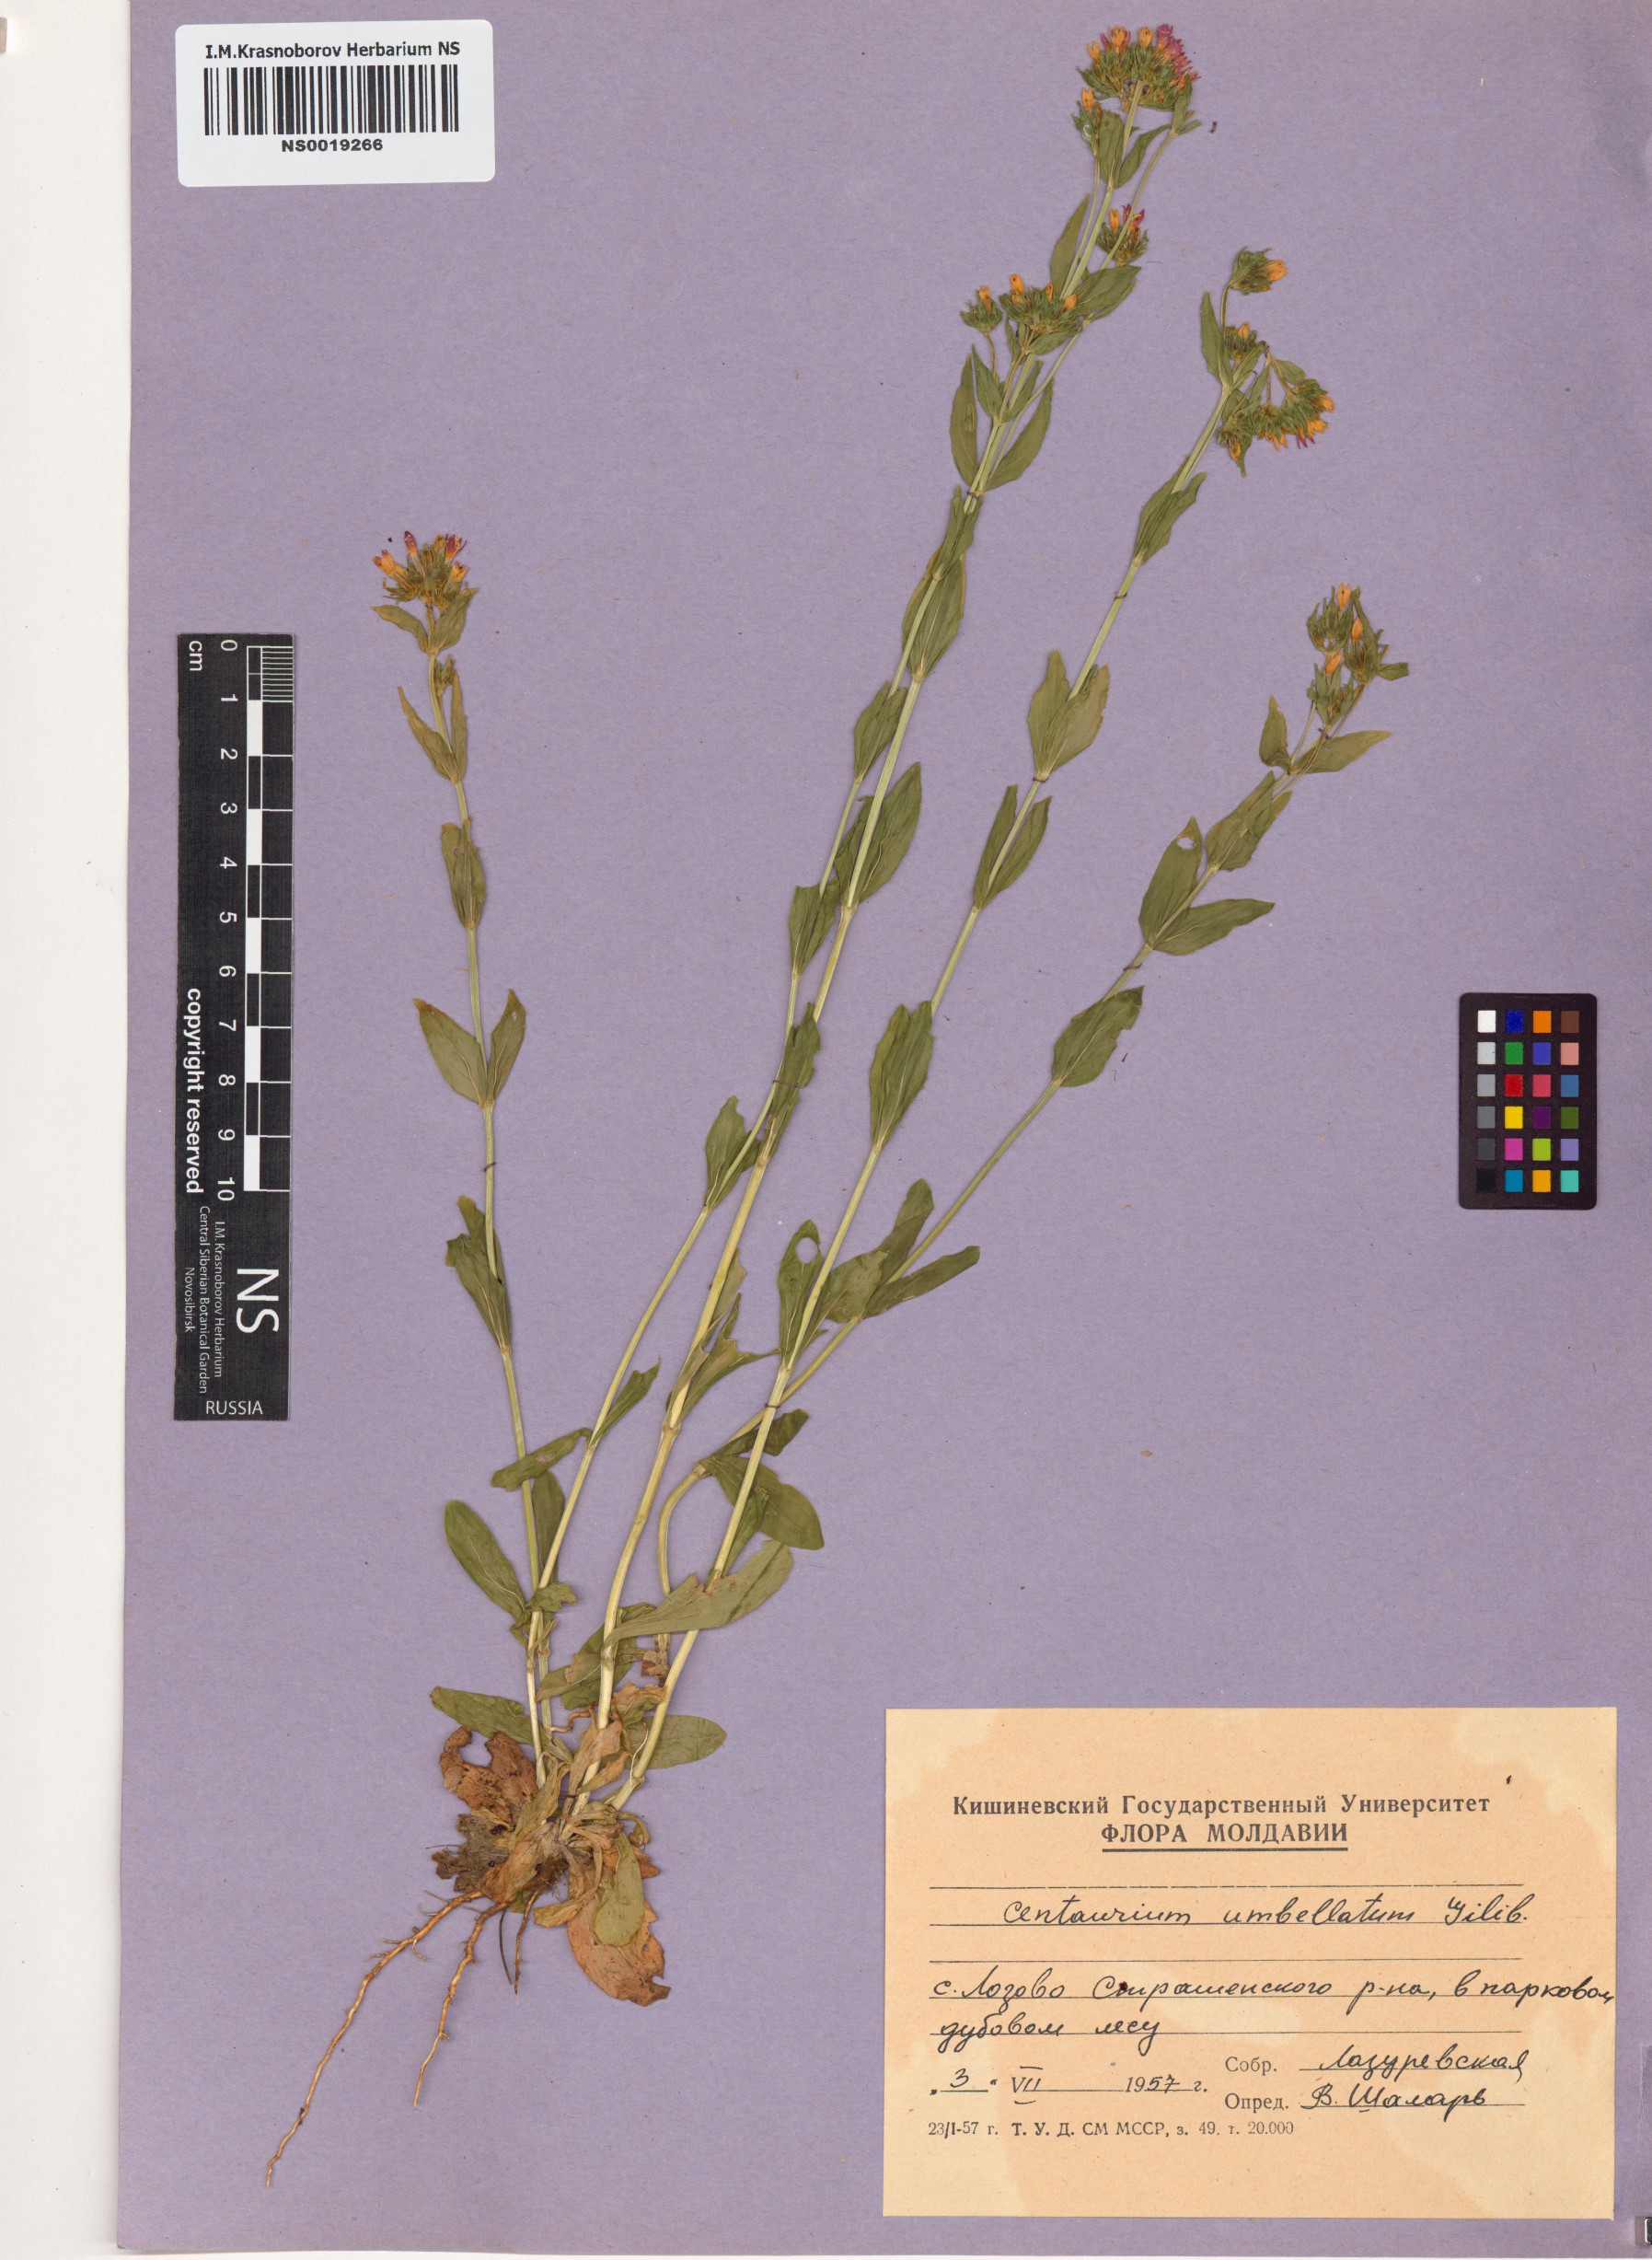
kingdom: Plantae
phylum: Tracheophyta
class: Magnoliopsida
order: Gentianales
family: Gentianaceae
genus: Centaurium
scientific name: Centaurium erythraea
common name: Common centaury
